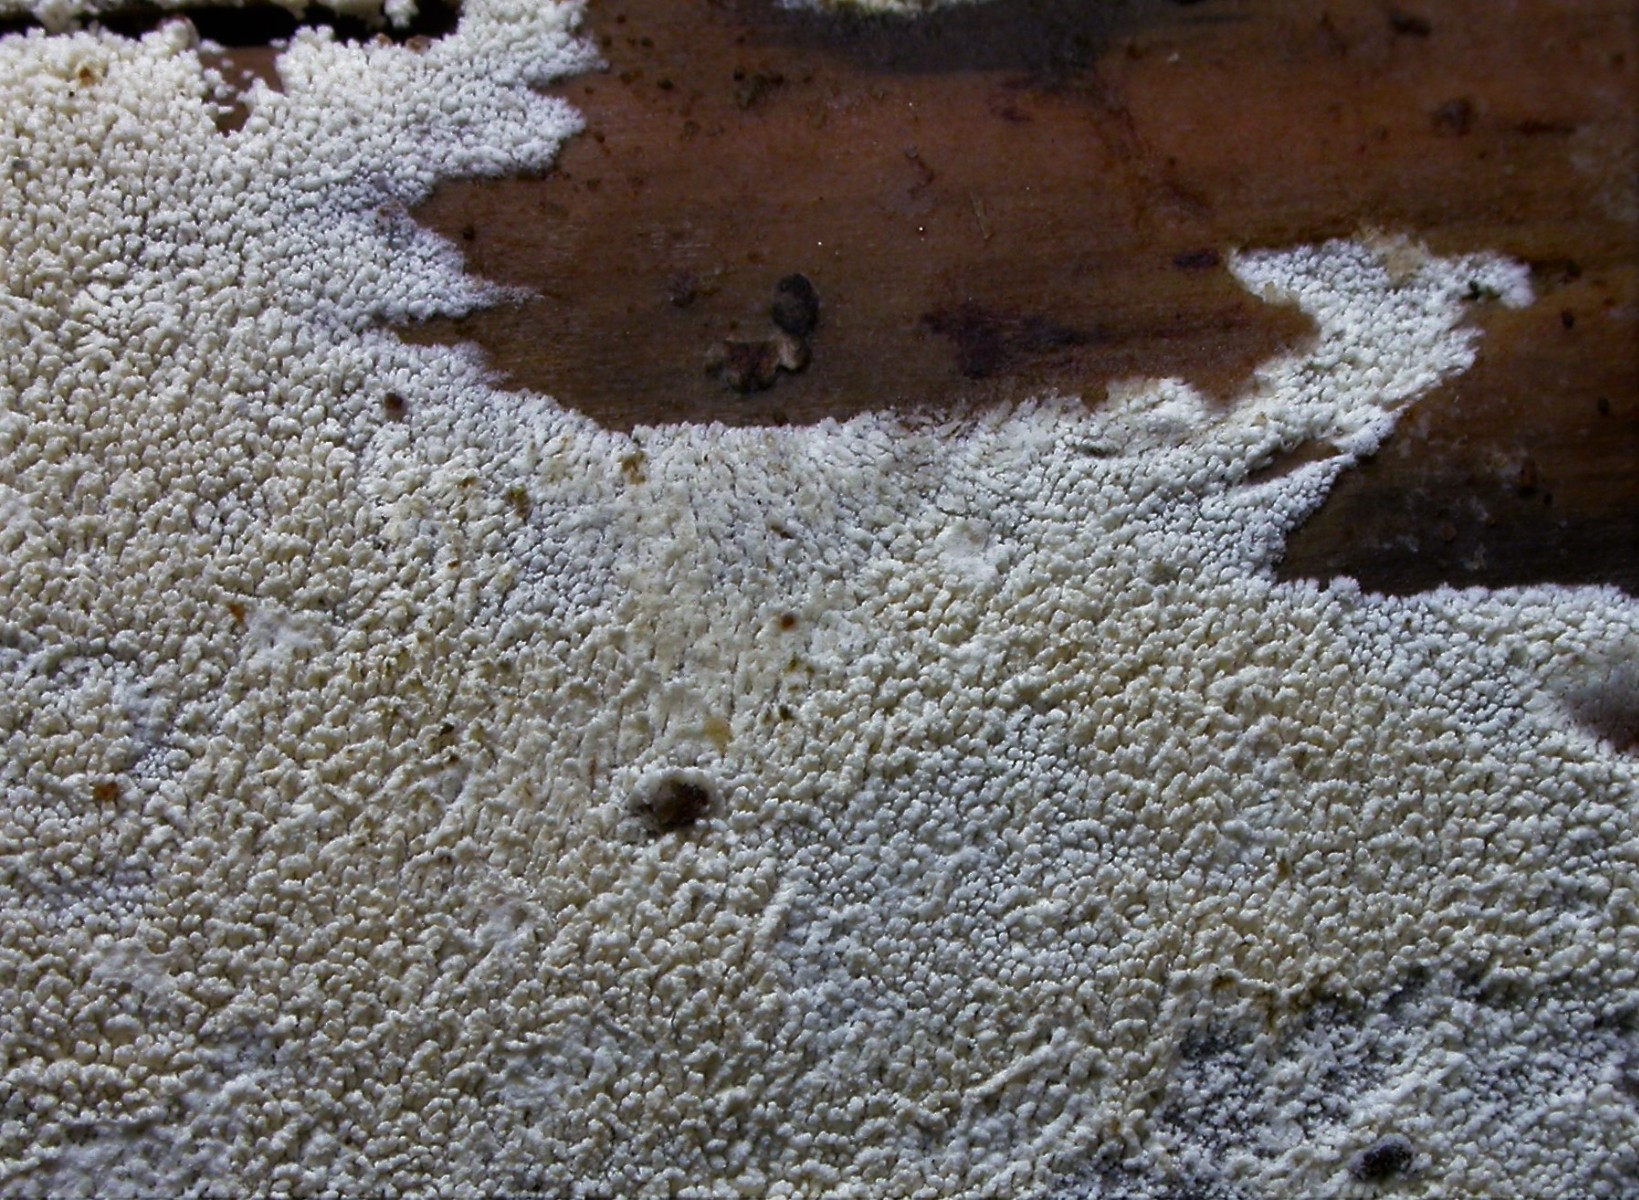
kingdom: Fungi
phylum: Basidiomycota
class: Agaricomycetes
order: Trechisporales
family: Sistotremataceae
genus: Trechispora
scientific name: Trechispora
